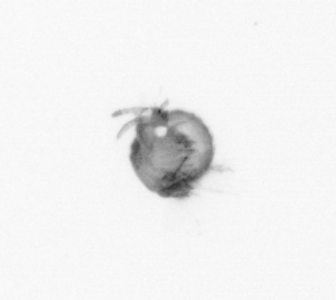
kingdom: Animalia
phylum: Annelida
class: Polychaeta
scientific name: Polychaeta
